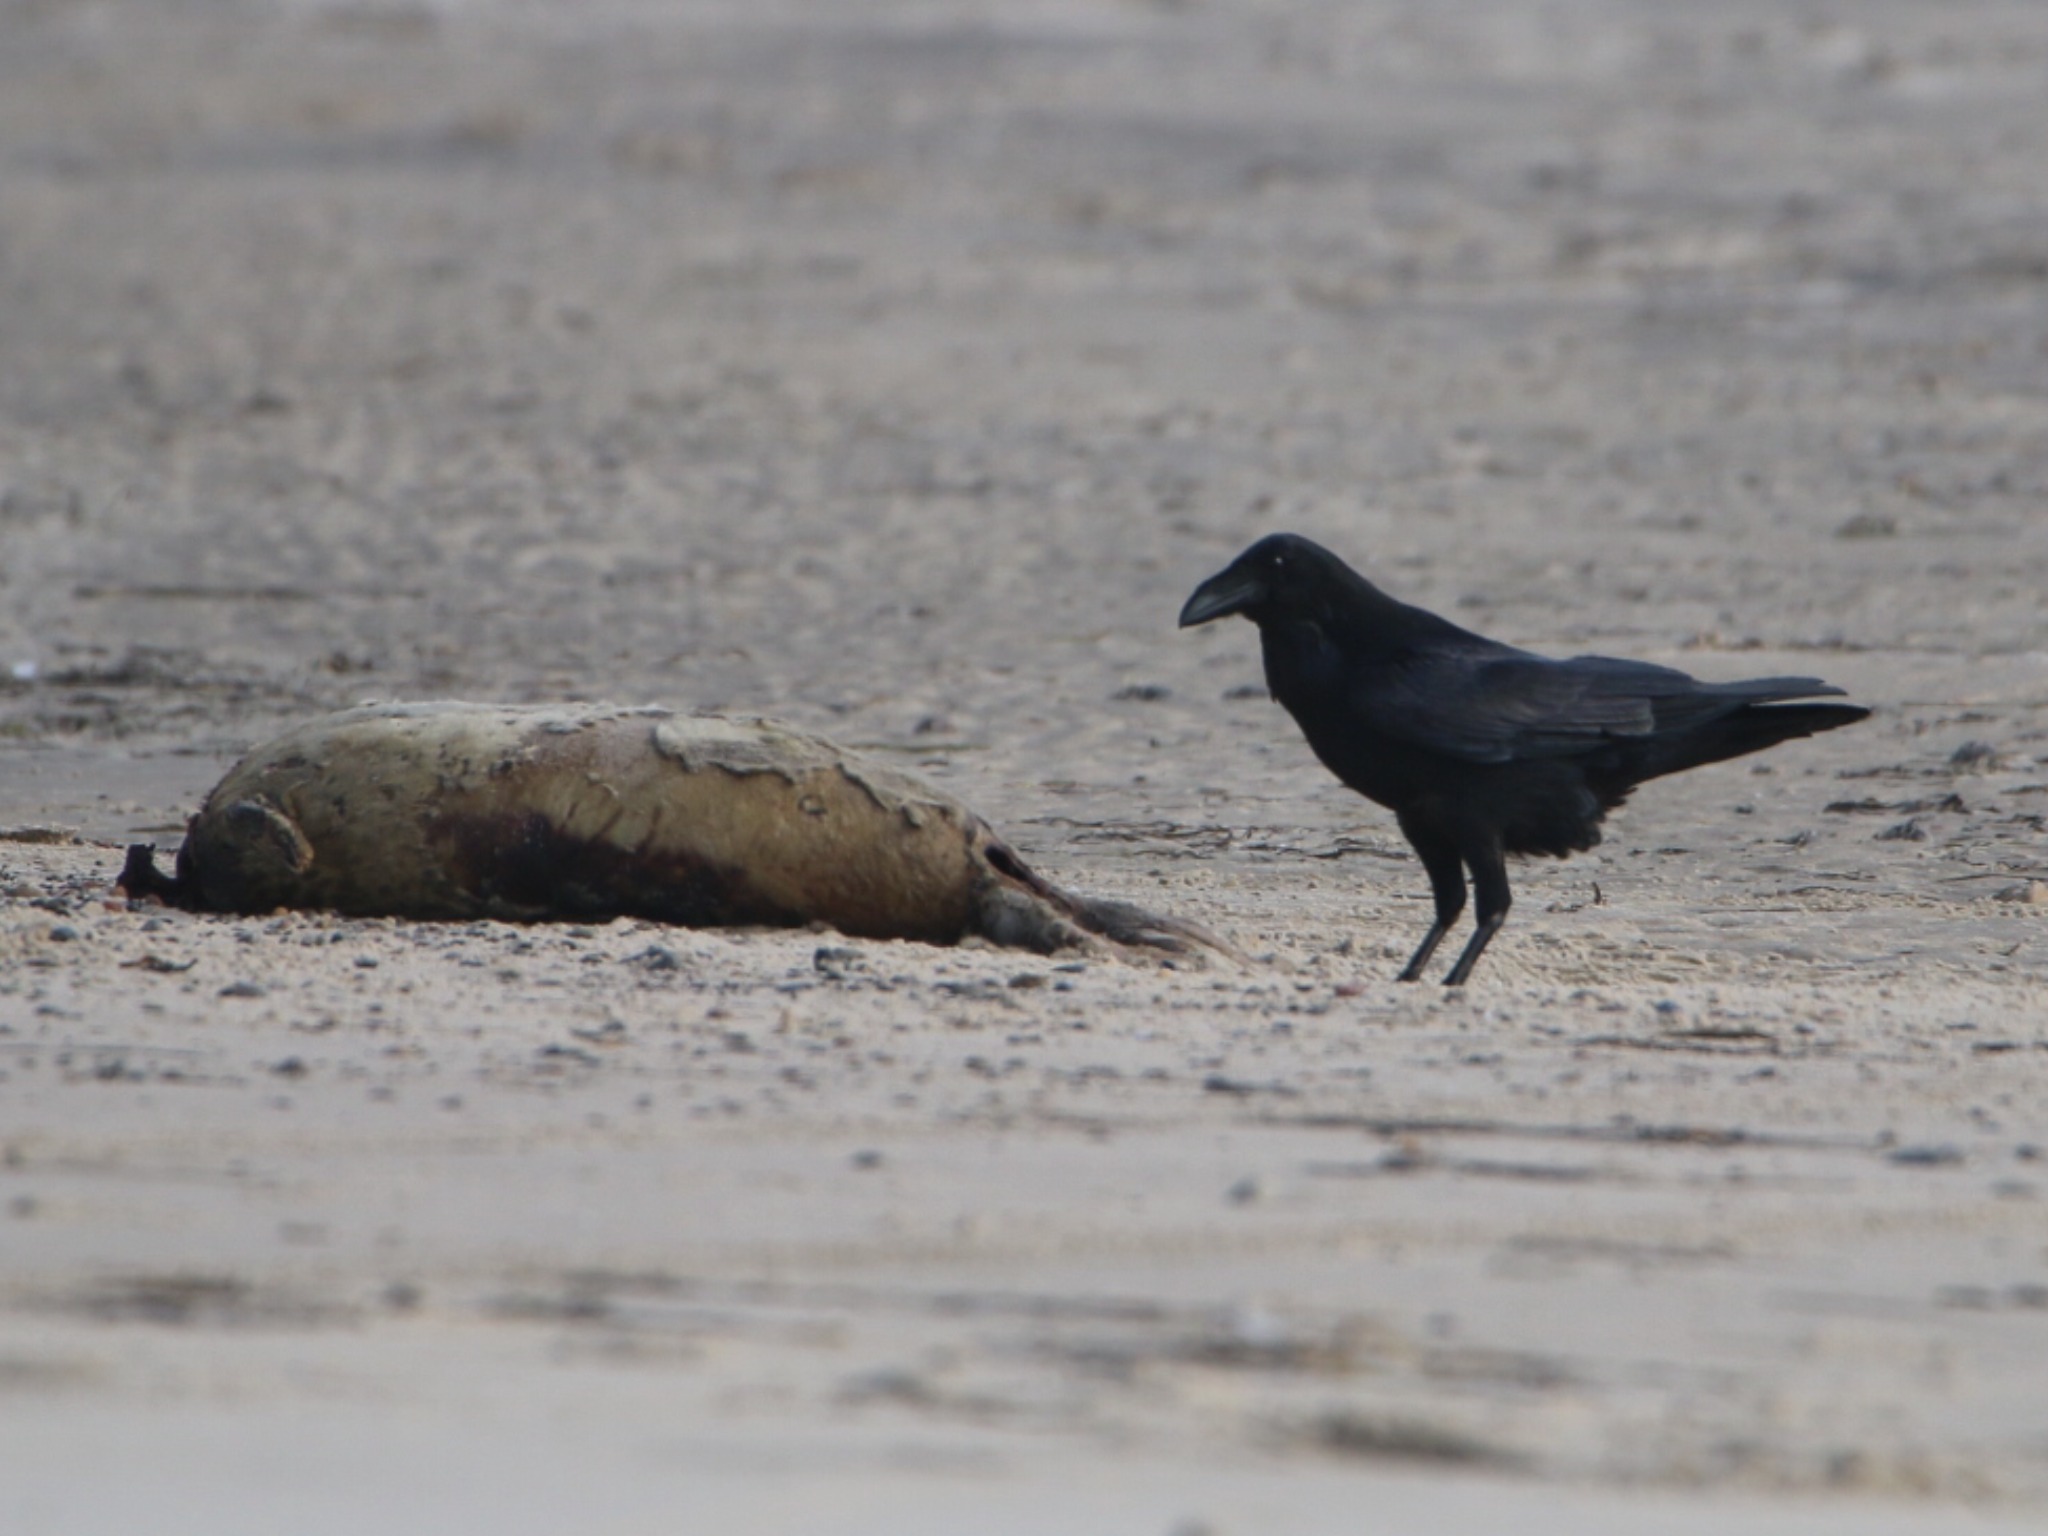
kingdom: Animalia
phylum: Chordata
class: Aves
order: Passeriformes
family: Corvidae
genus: Corvus
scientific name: Corvus corax
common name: Ravn
